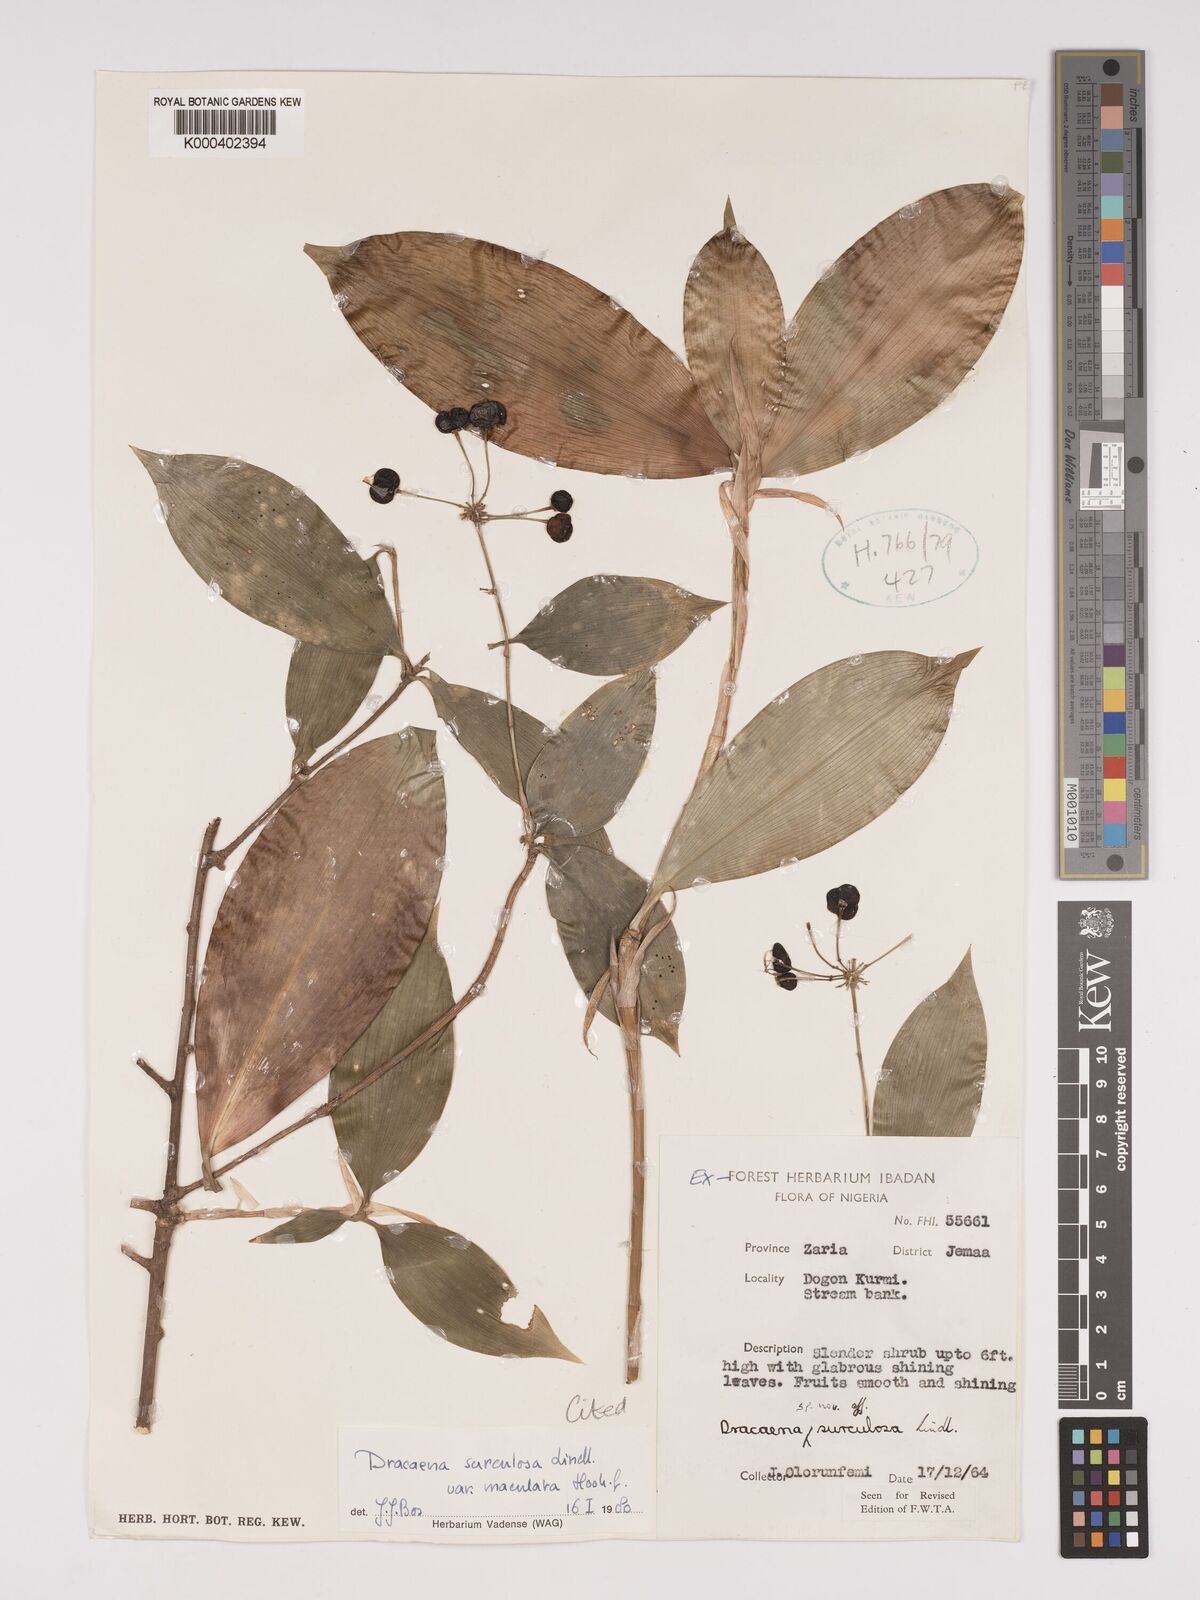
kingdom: Plantae
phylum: Tracheophyta
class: Liliopsida
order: Asparagales
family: Asparagaceae
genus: Dracaena
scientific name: Dracaena surculosa
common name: Spotted dracaena
